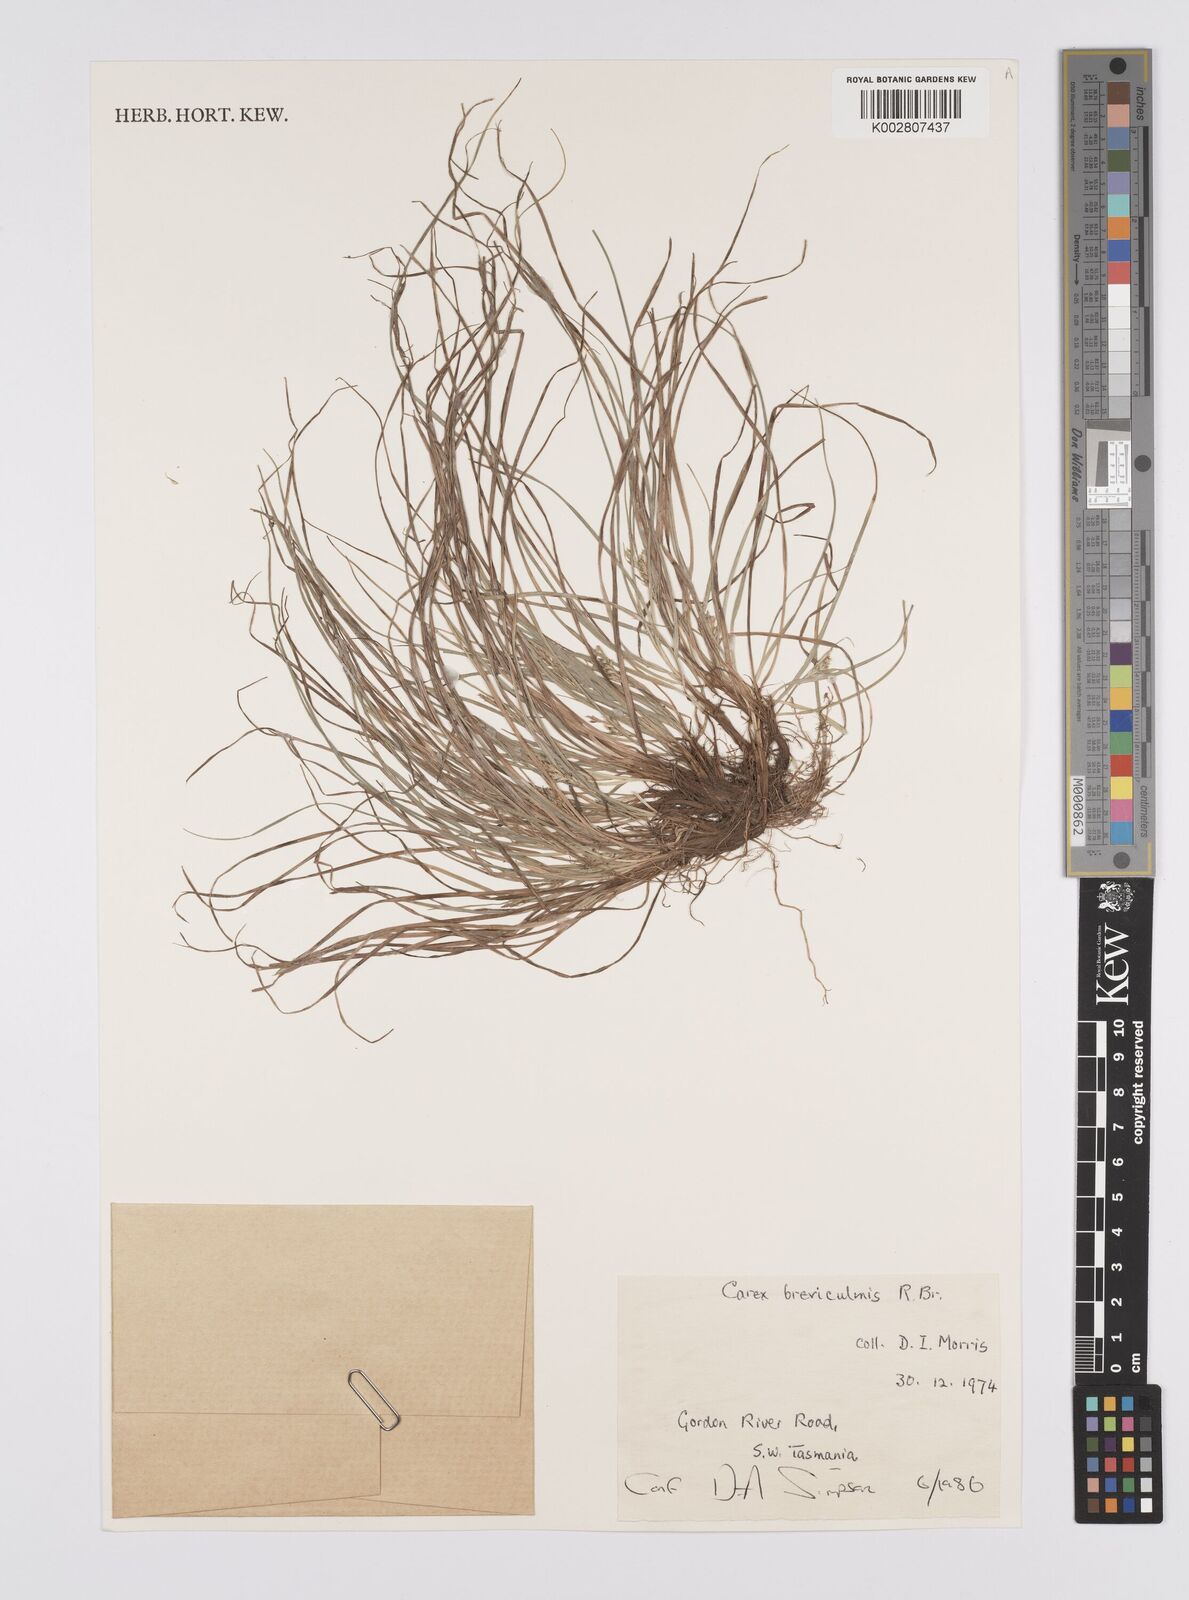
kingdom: Plantae
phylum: Tracheophyta
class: Liliopsida
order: Poales
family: Cyperaceae
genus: Carex
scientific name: Carex breviculmis
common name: Asian shortstem sedge
